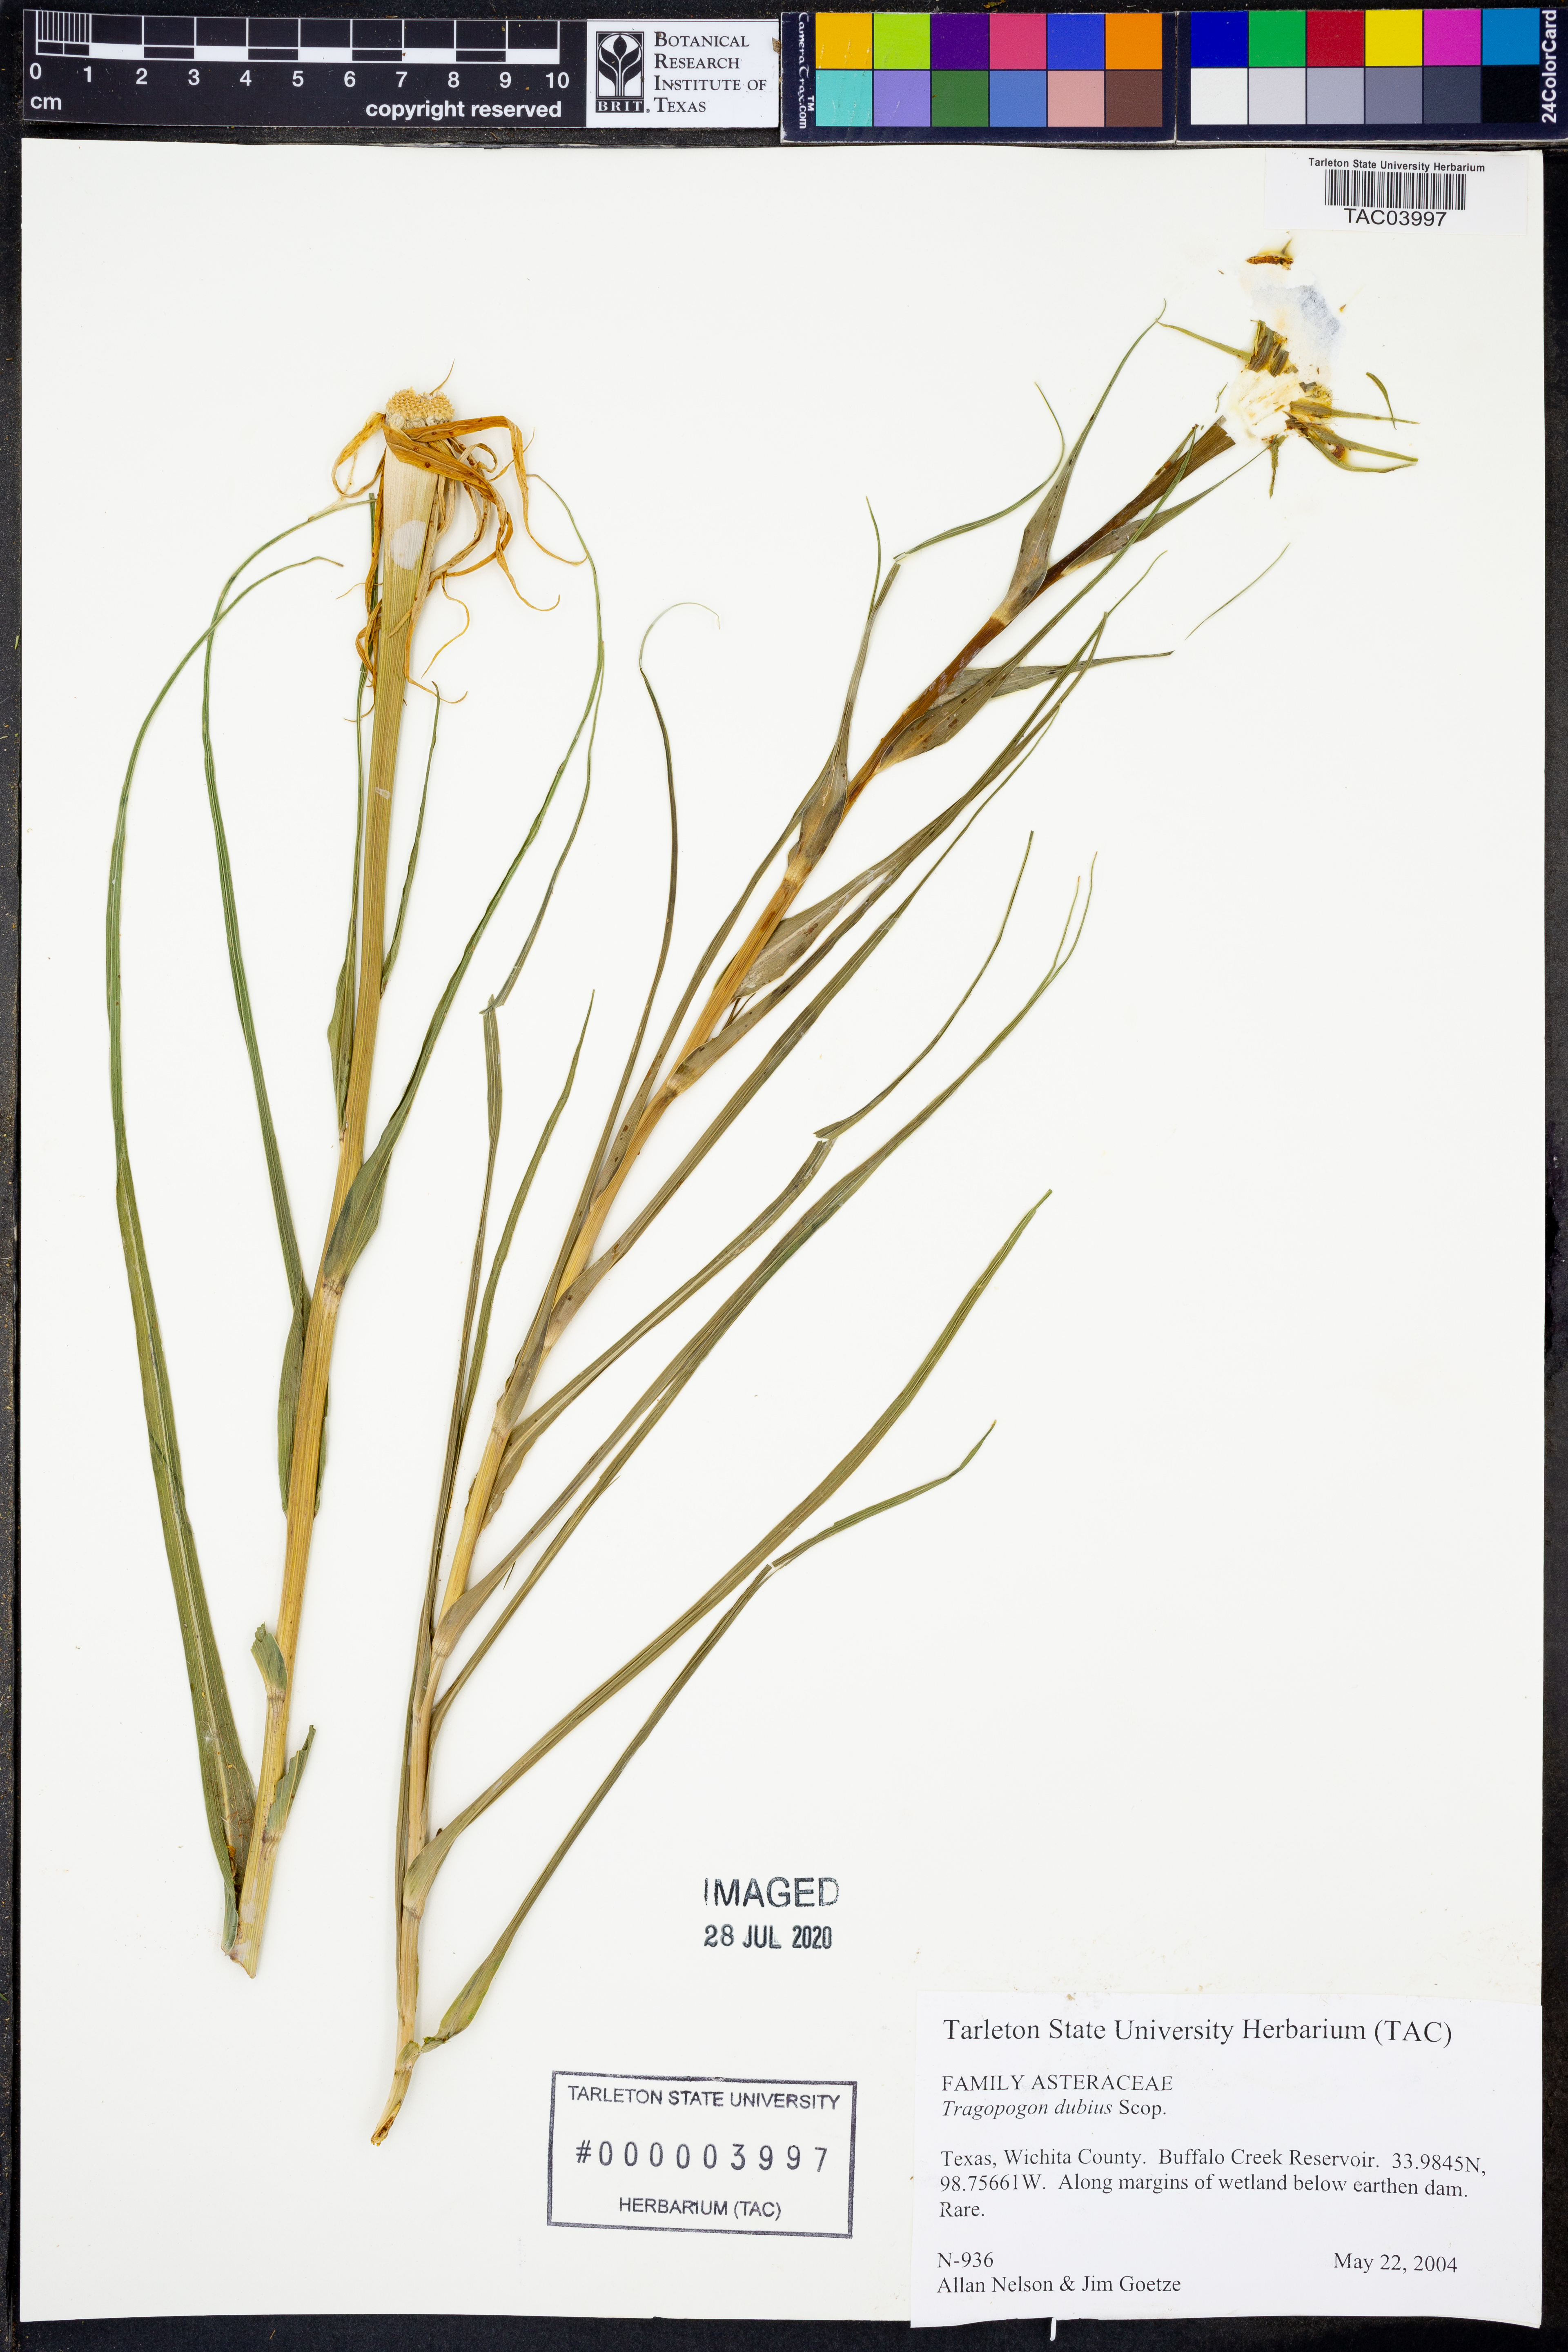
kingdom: Plantae
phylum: Tracheophyta
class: Magnoliopsida
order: Asterales
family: Asteraceae
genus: Tragopogon
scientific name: Tragopogon dubius
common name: Yellow salsify
